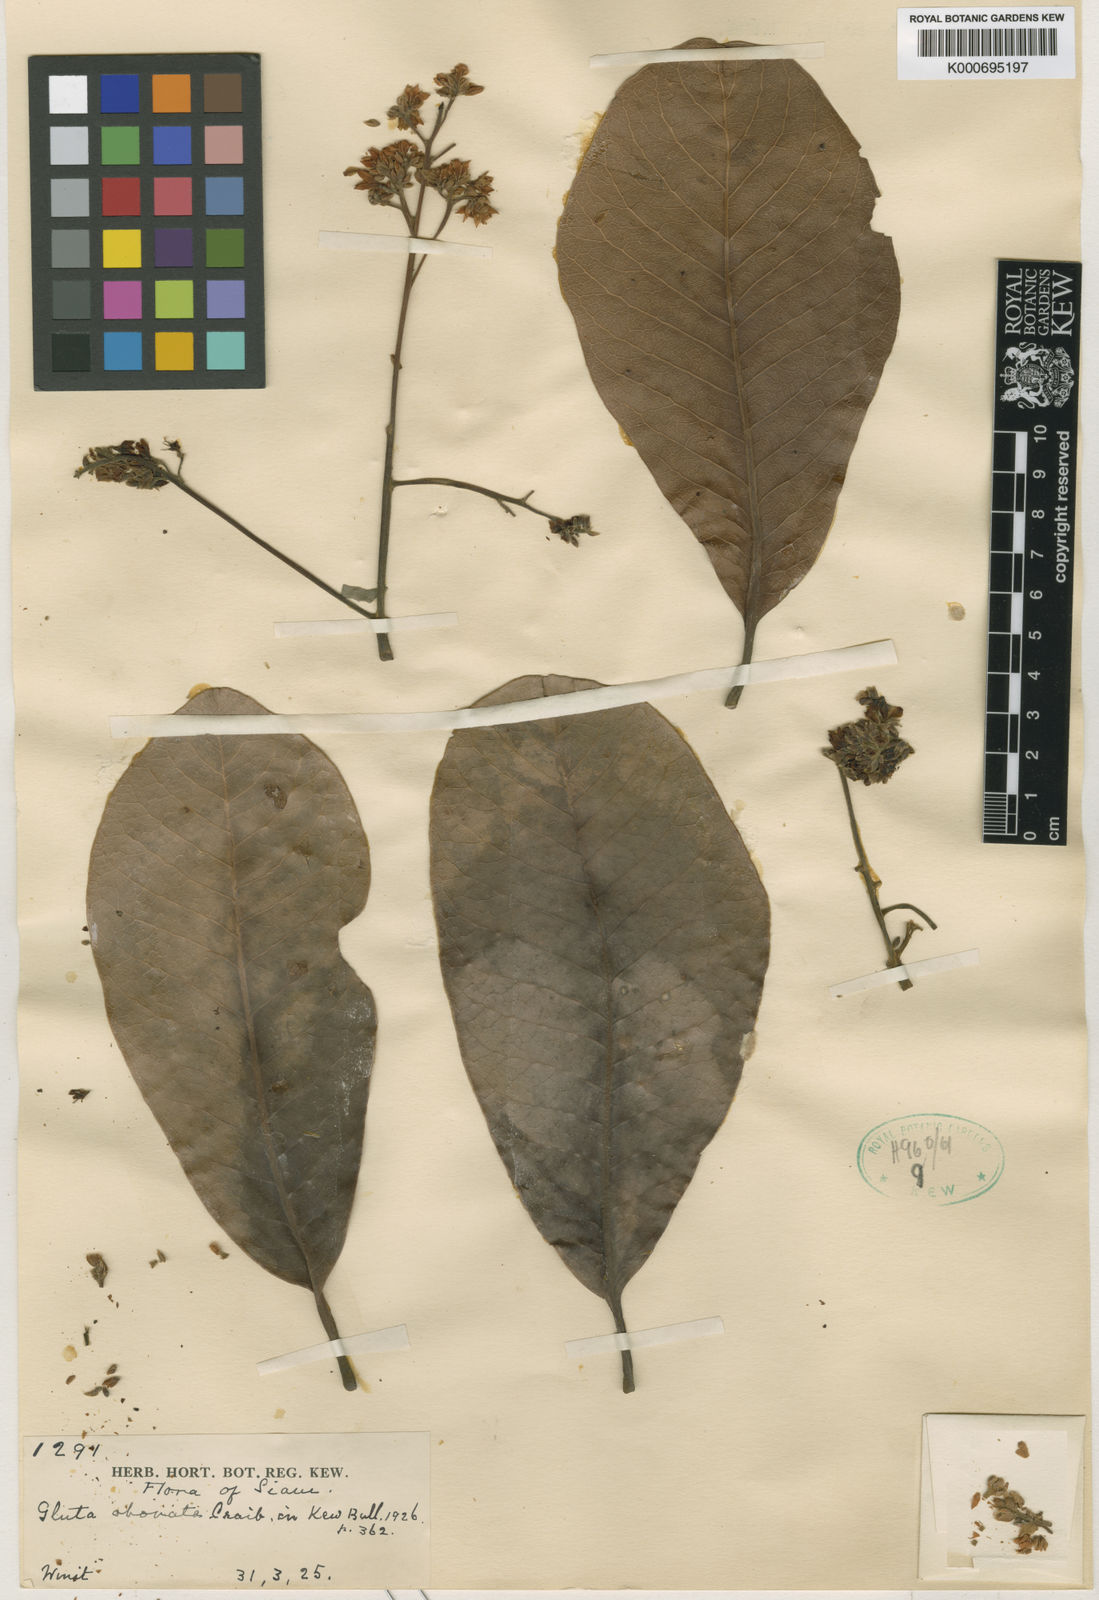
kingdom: Plantae
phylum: Tracheophyta
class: Magnoliopsida
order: Sapindales
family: Anacardiaceae
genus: Gluta
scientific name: Gluta obovata
